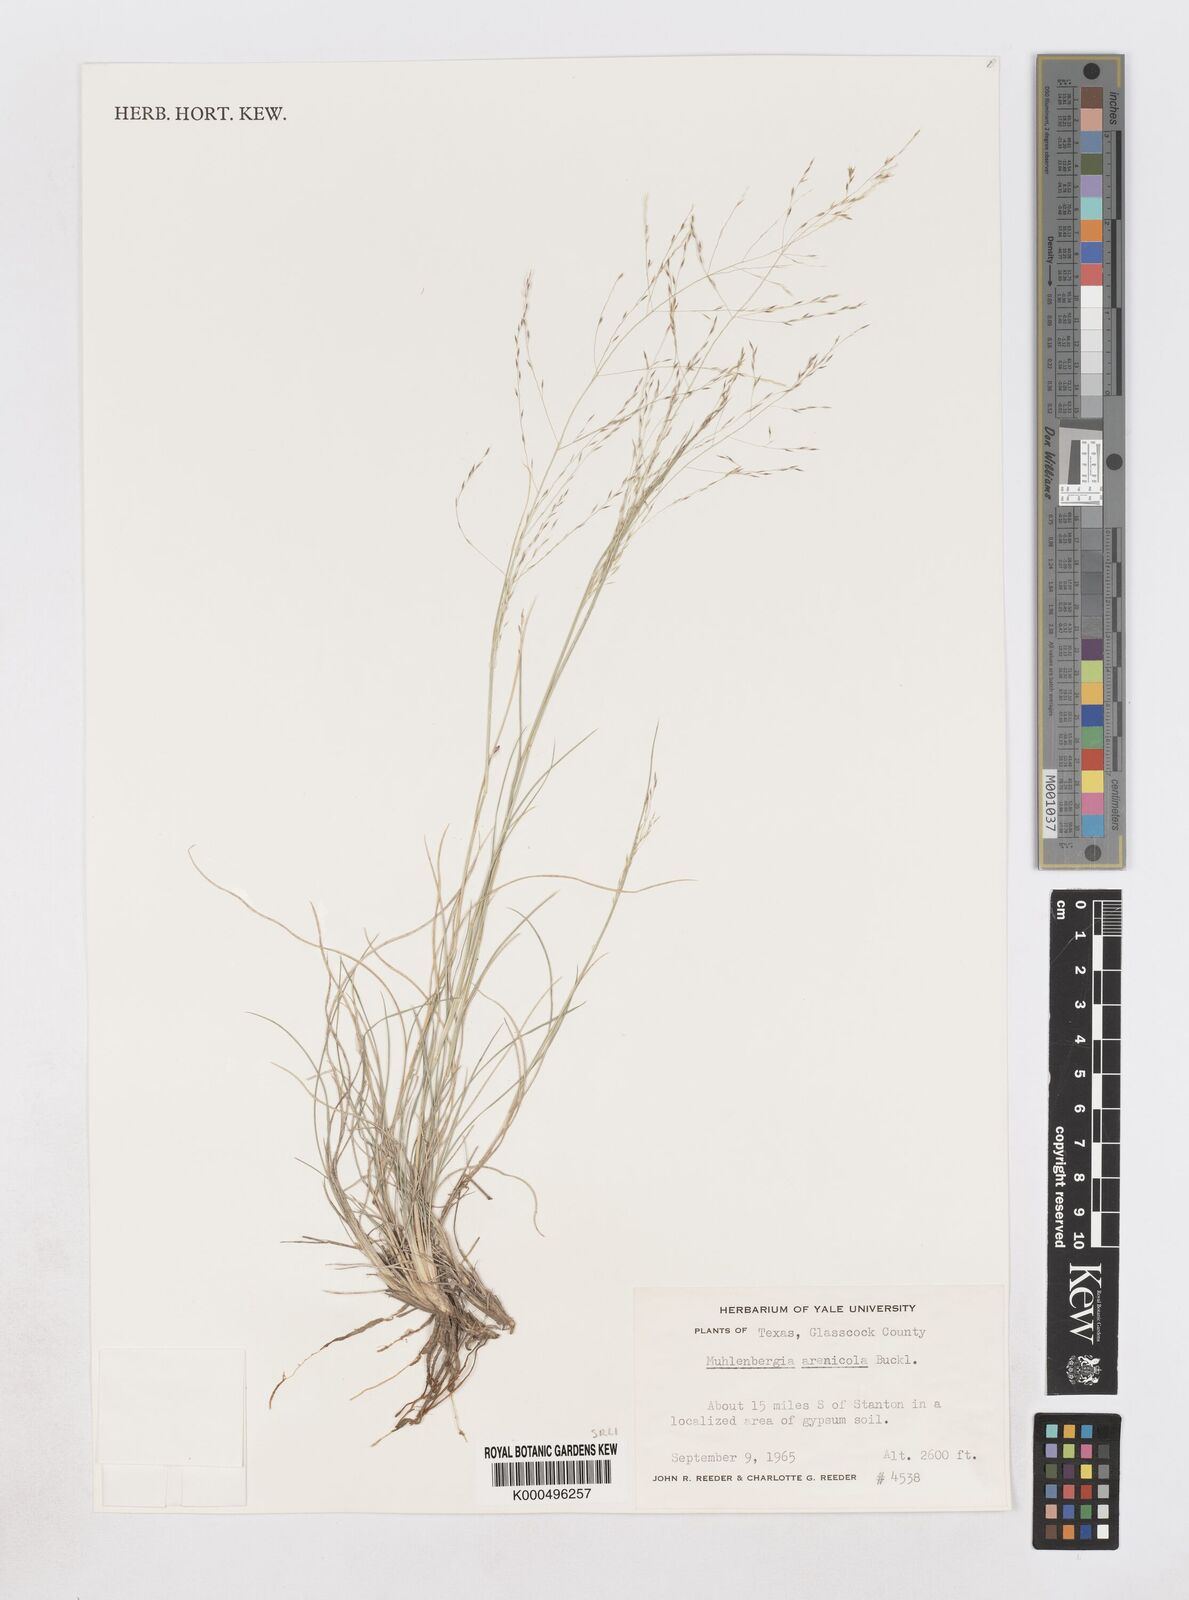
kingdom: Plantae
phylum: Tracheophyta
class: Liliopsida
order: Poales
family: Poaceae
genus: Muhlenbergia
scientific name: Muhlenbergia arenicola
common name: Sand muhly
